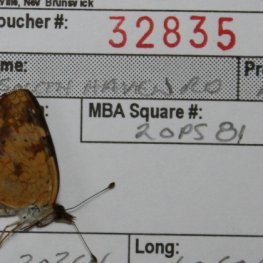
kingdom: Animalia
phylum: Arthropoda
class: Insecta
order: Lepidoptera
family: Nymphalidae
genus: Phyciodes
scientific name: Phyciodes tharos
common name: Northern Crescent
